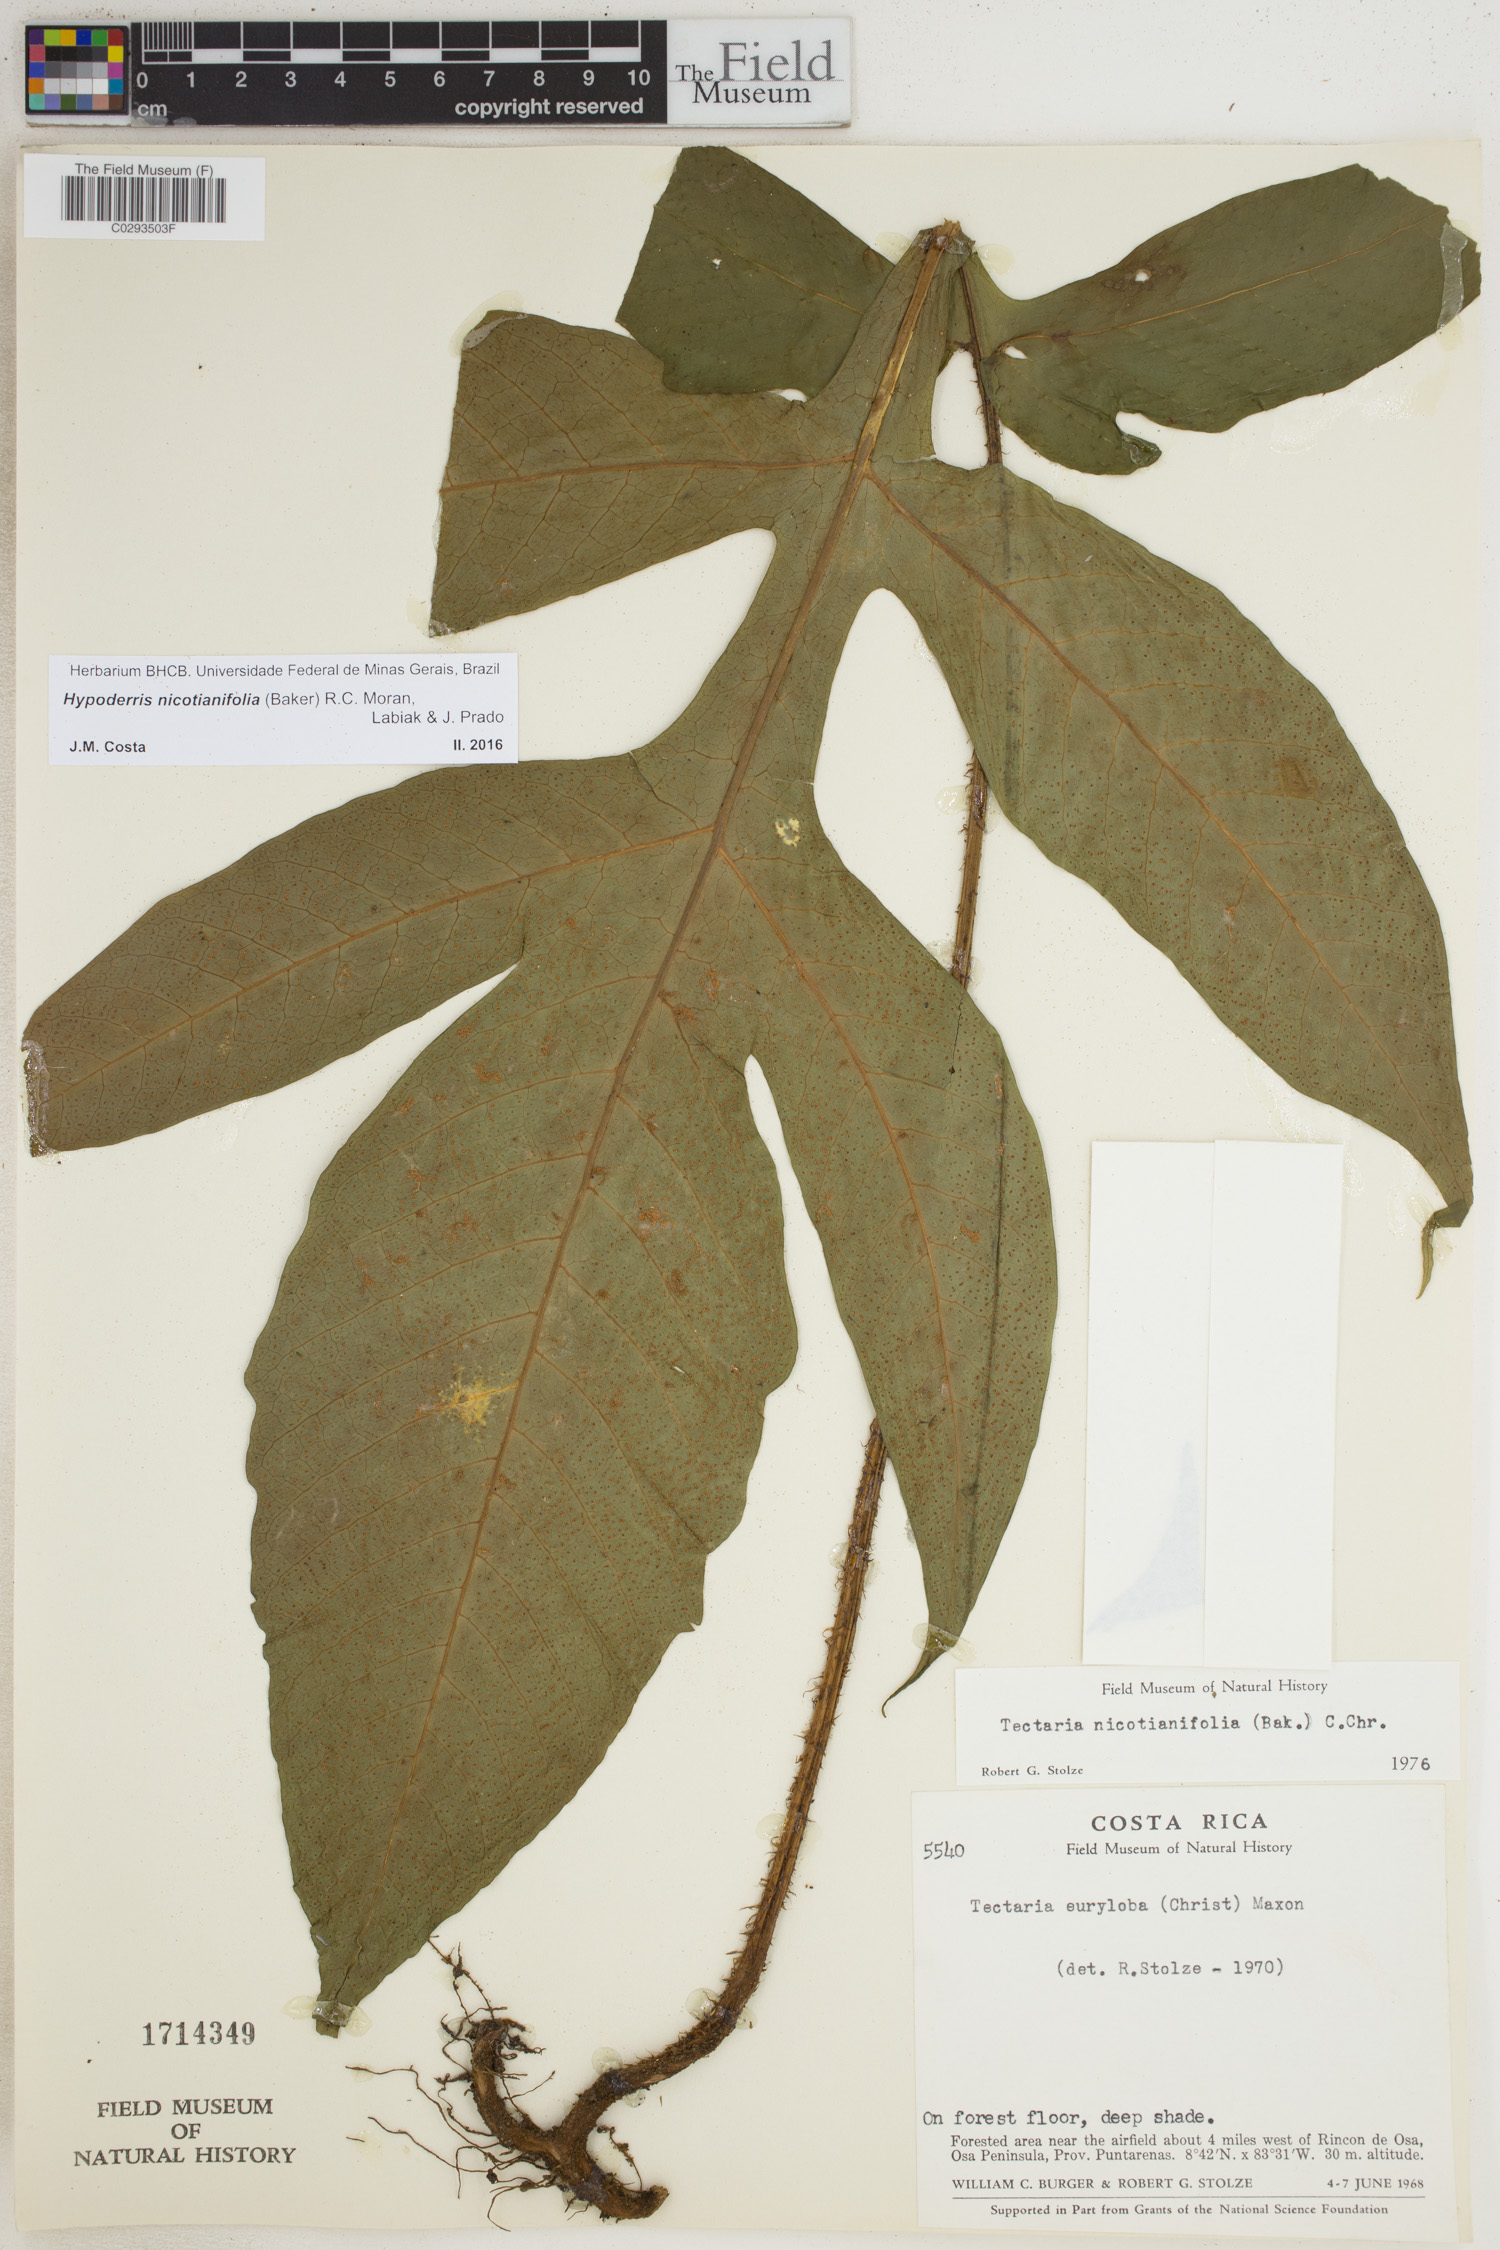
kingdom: Plantae
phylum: Tracheophyta
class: Polypodiopsida
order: Polypodiales
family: Tectariaceae
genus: Hypoderris
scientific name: Hypoderris nicotianifolia
